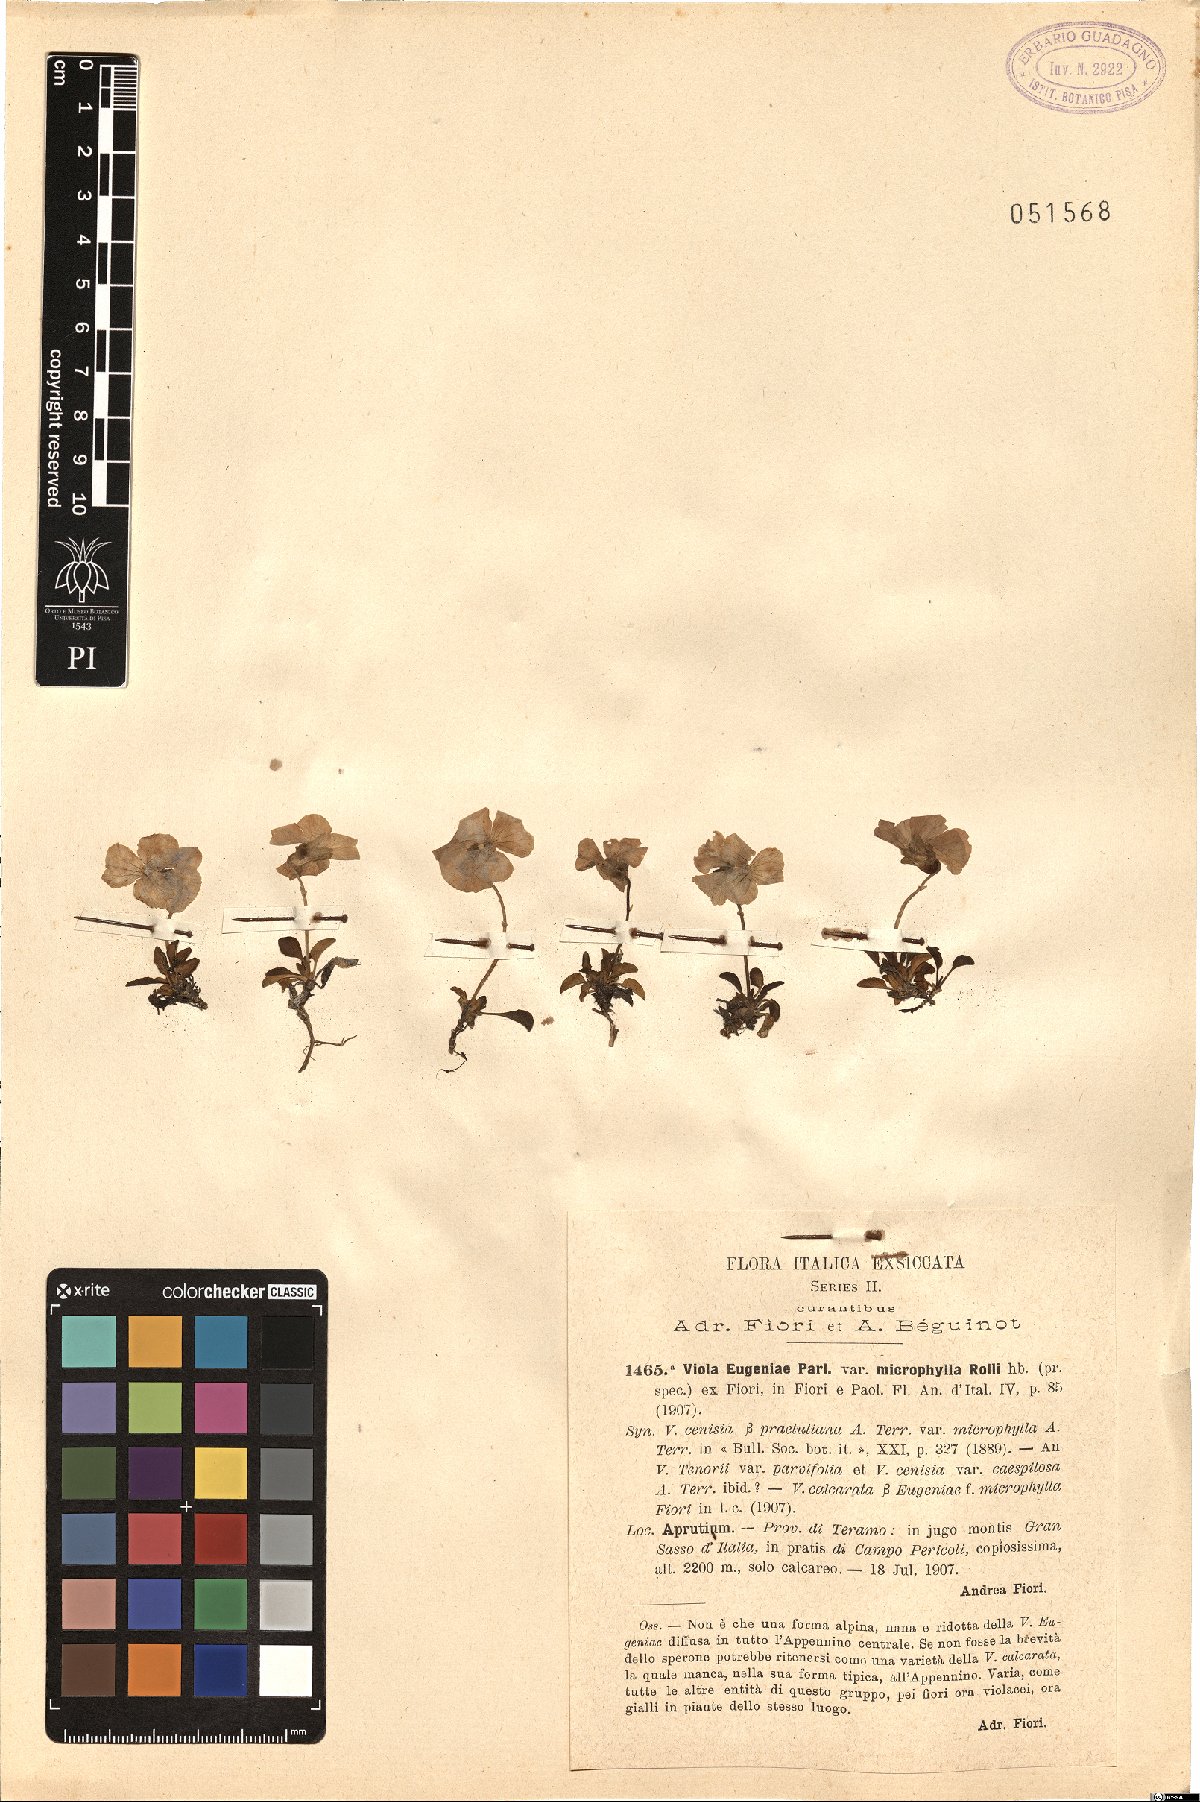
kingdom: Plantae
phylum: Tracheophyta
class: Magnoliopsida
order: Malpighiales
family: Violaceae
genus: Viola
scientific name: Viola calcarata
